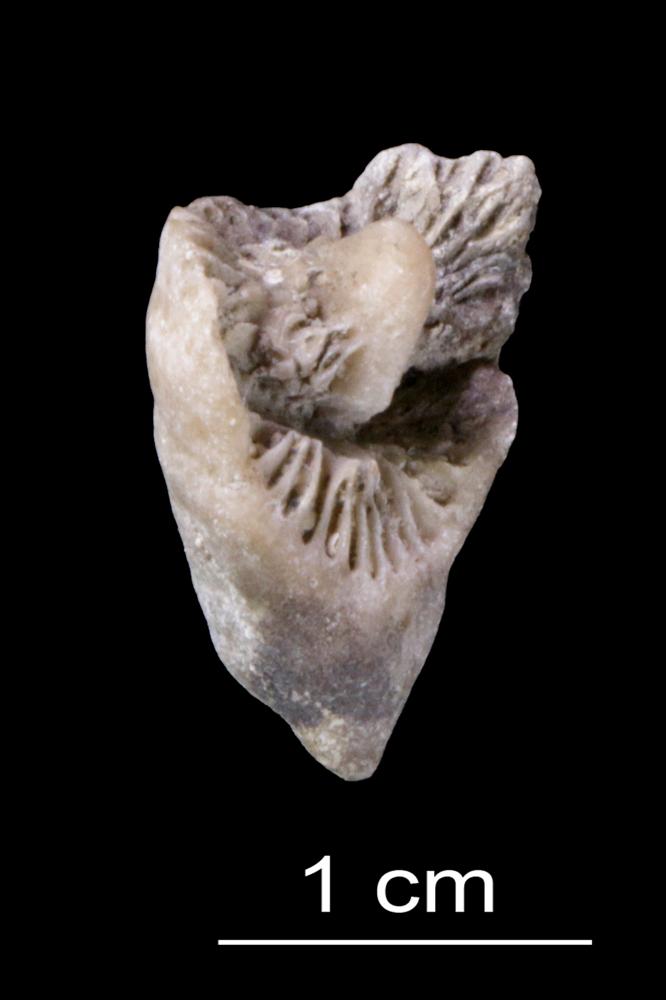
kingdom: Animalia
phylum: Cnidaria
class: Anthozoa
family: Streptelasmatidae
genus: Dalmanophyllum
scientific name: Dalmanophyllum
